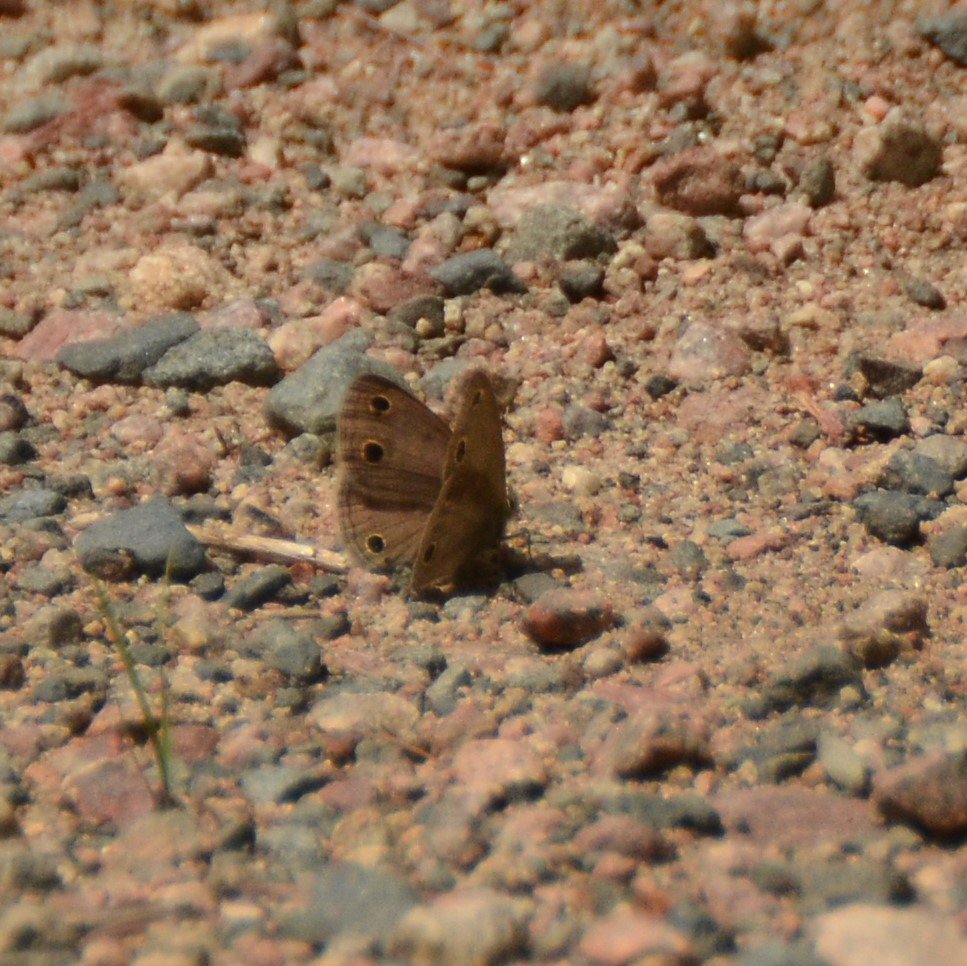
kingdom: Animalia
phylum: Arthropoda
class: Insecta
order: Lepidoptera
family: Nymphalidae
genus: Euptychia
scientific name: Euptychia cymela
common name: Little Wood Satyr
